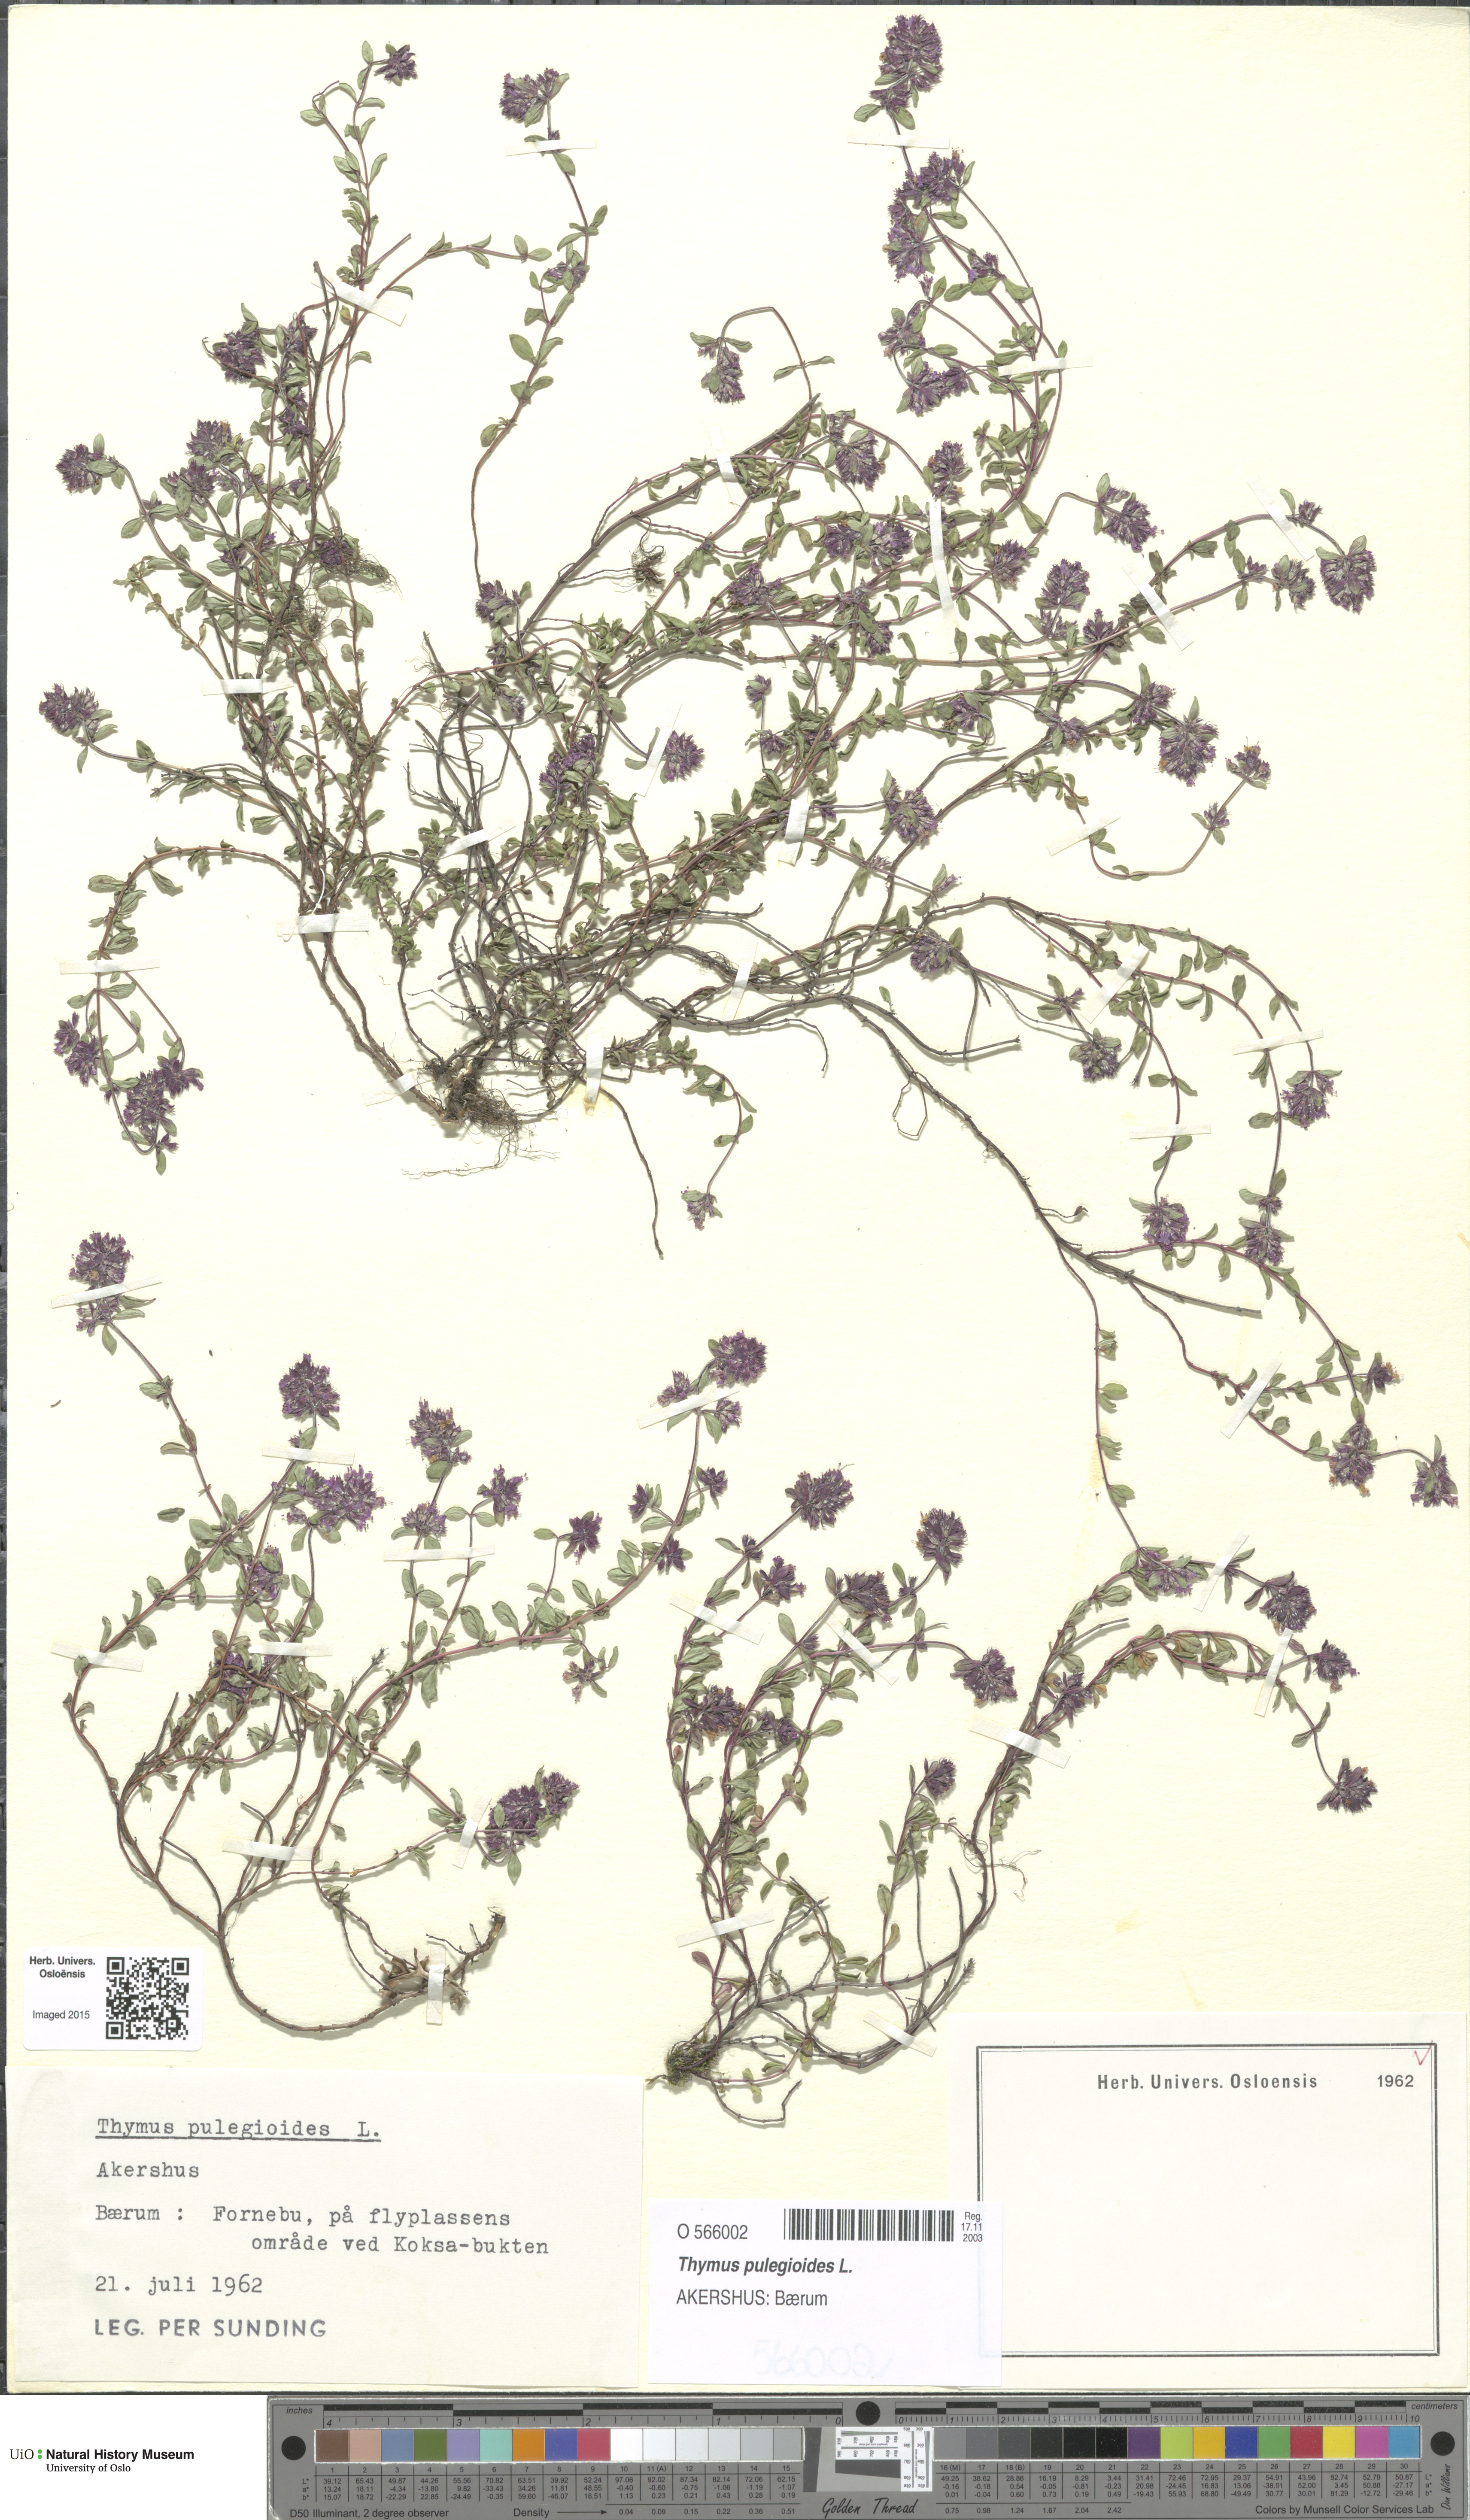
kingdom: Plantae
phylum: Tracheophyta
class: Magnoliopsida
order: Lamiales
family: Lamiaceae
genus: Thymus
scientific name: Thymus pulegioides
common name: Large thyme
